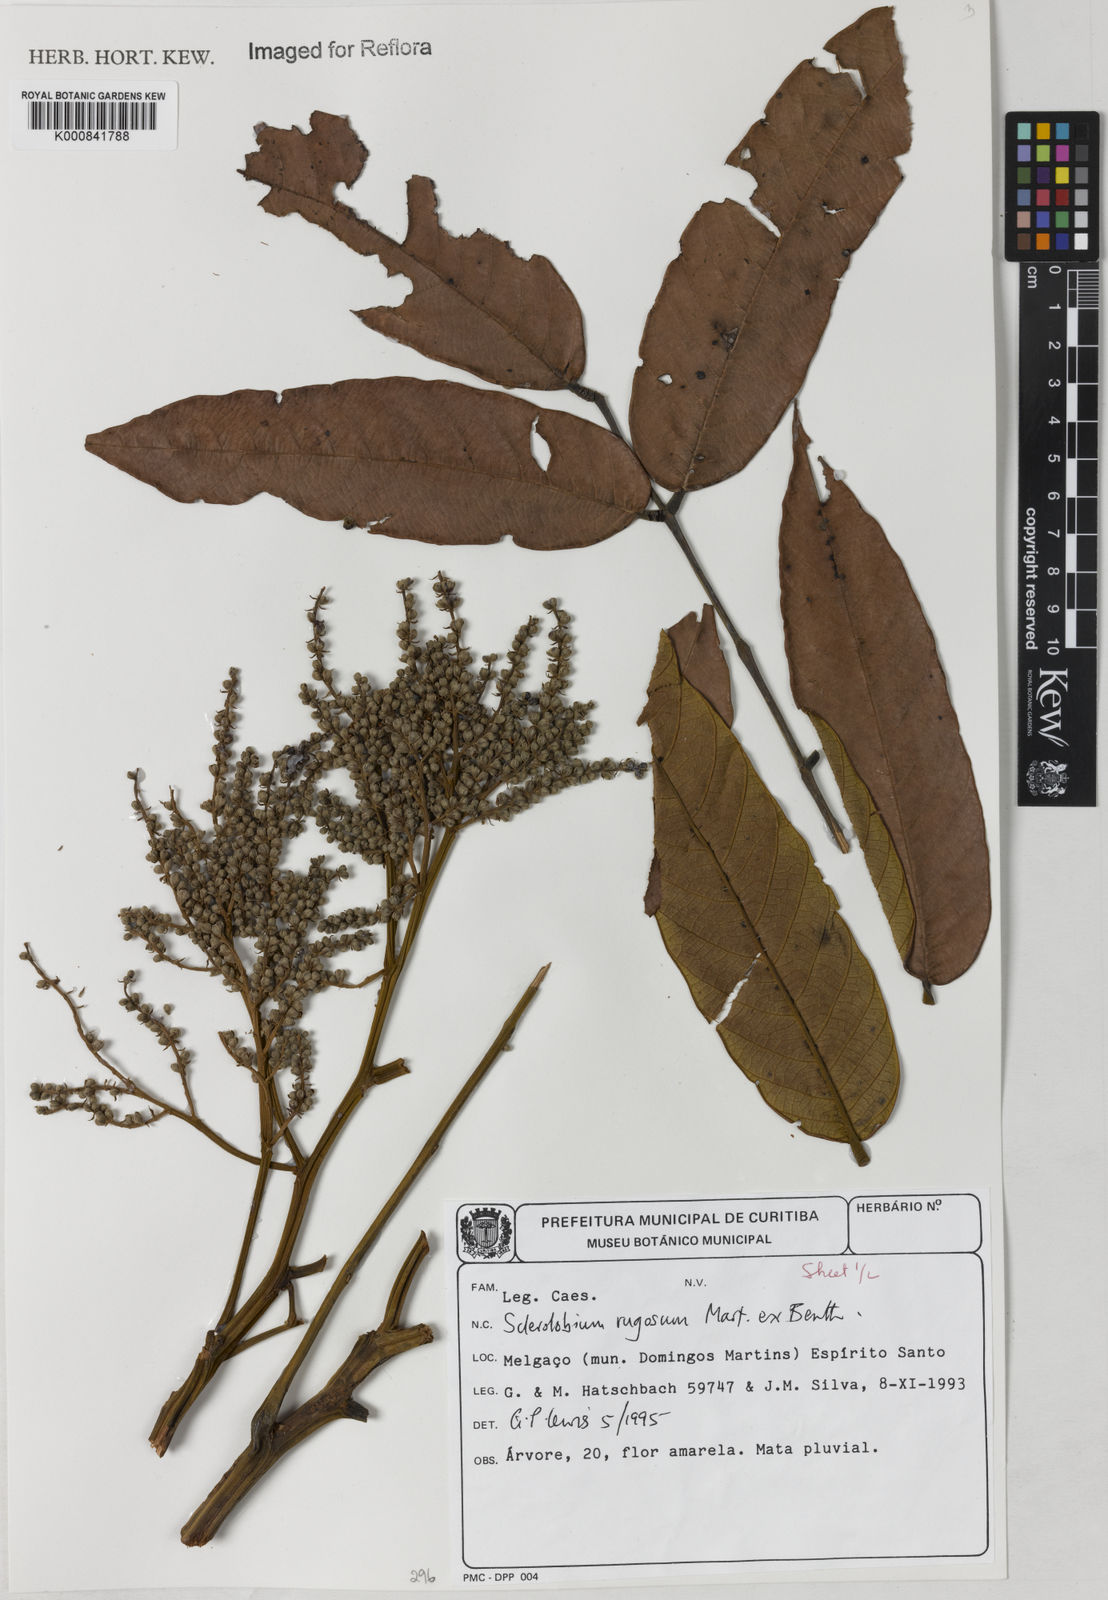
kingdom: Plantae
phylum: Tracheophyta
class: Magnoliopsida
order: Fabales
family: Fabaceae
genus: Tachigali
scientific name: Tachigali rugosa
